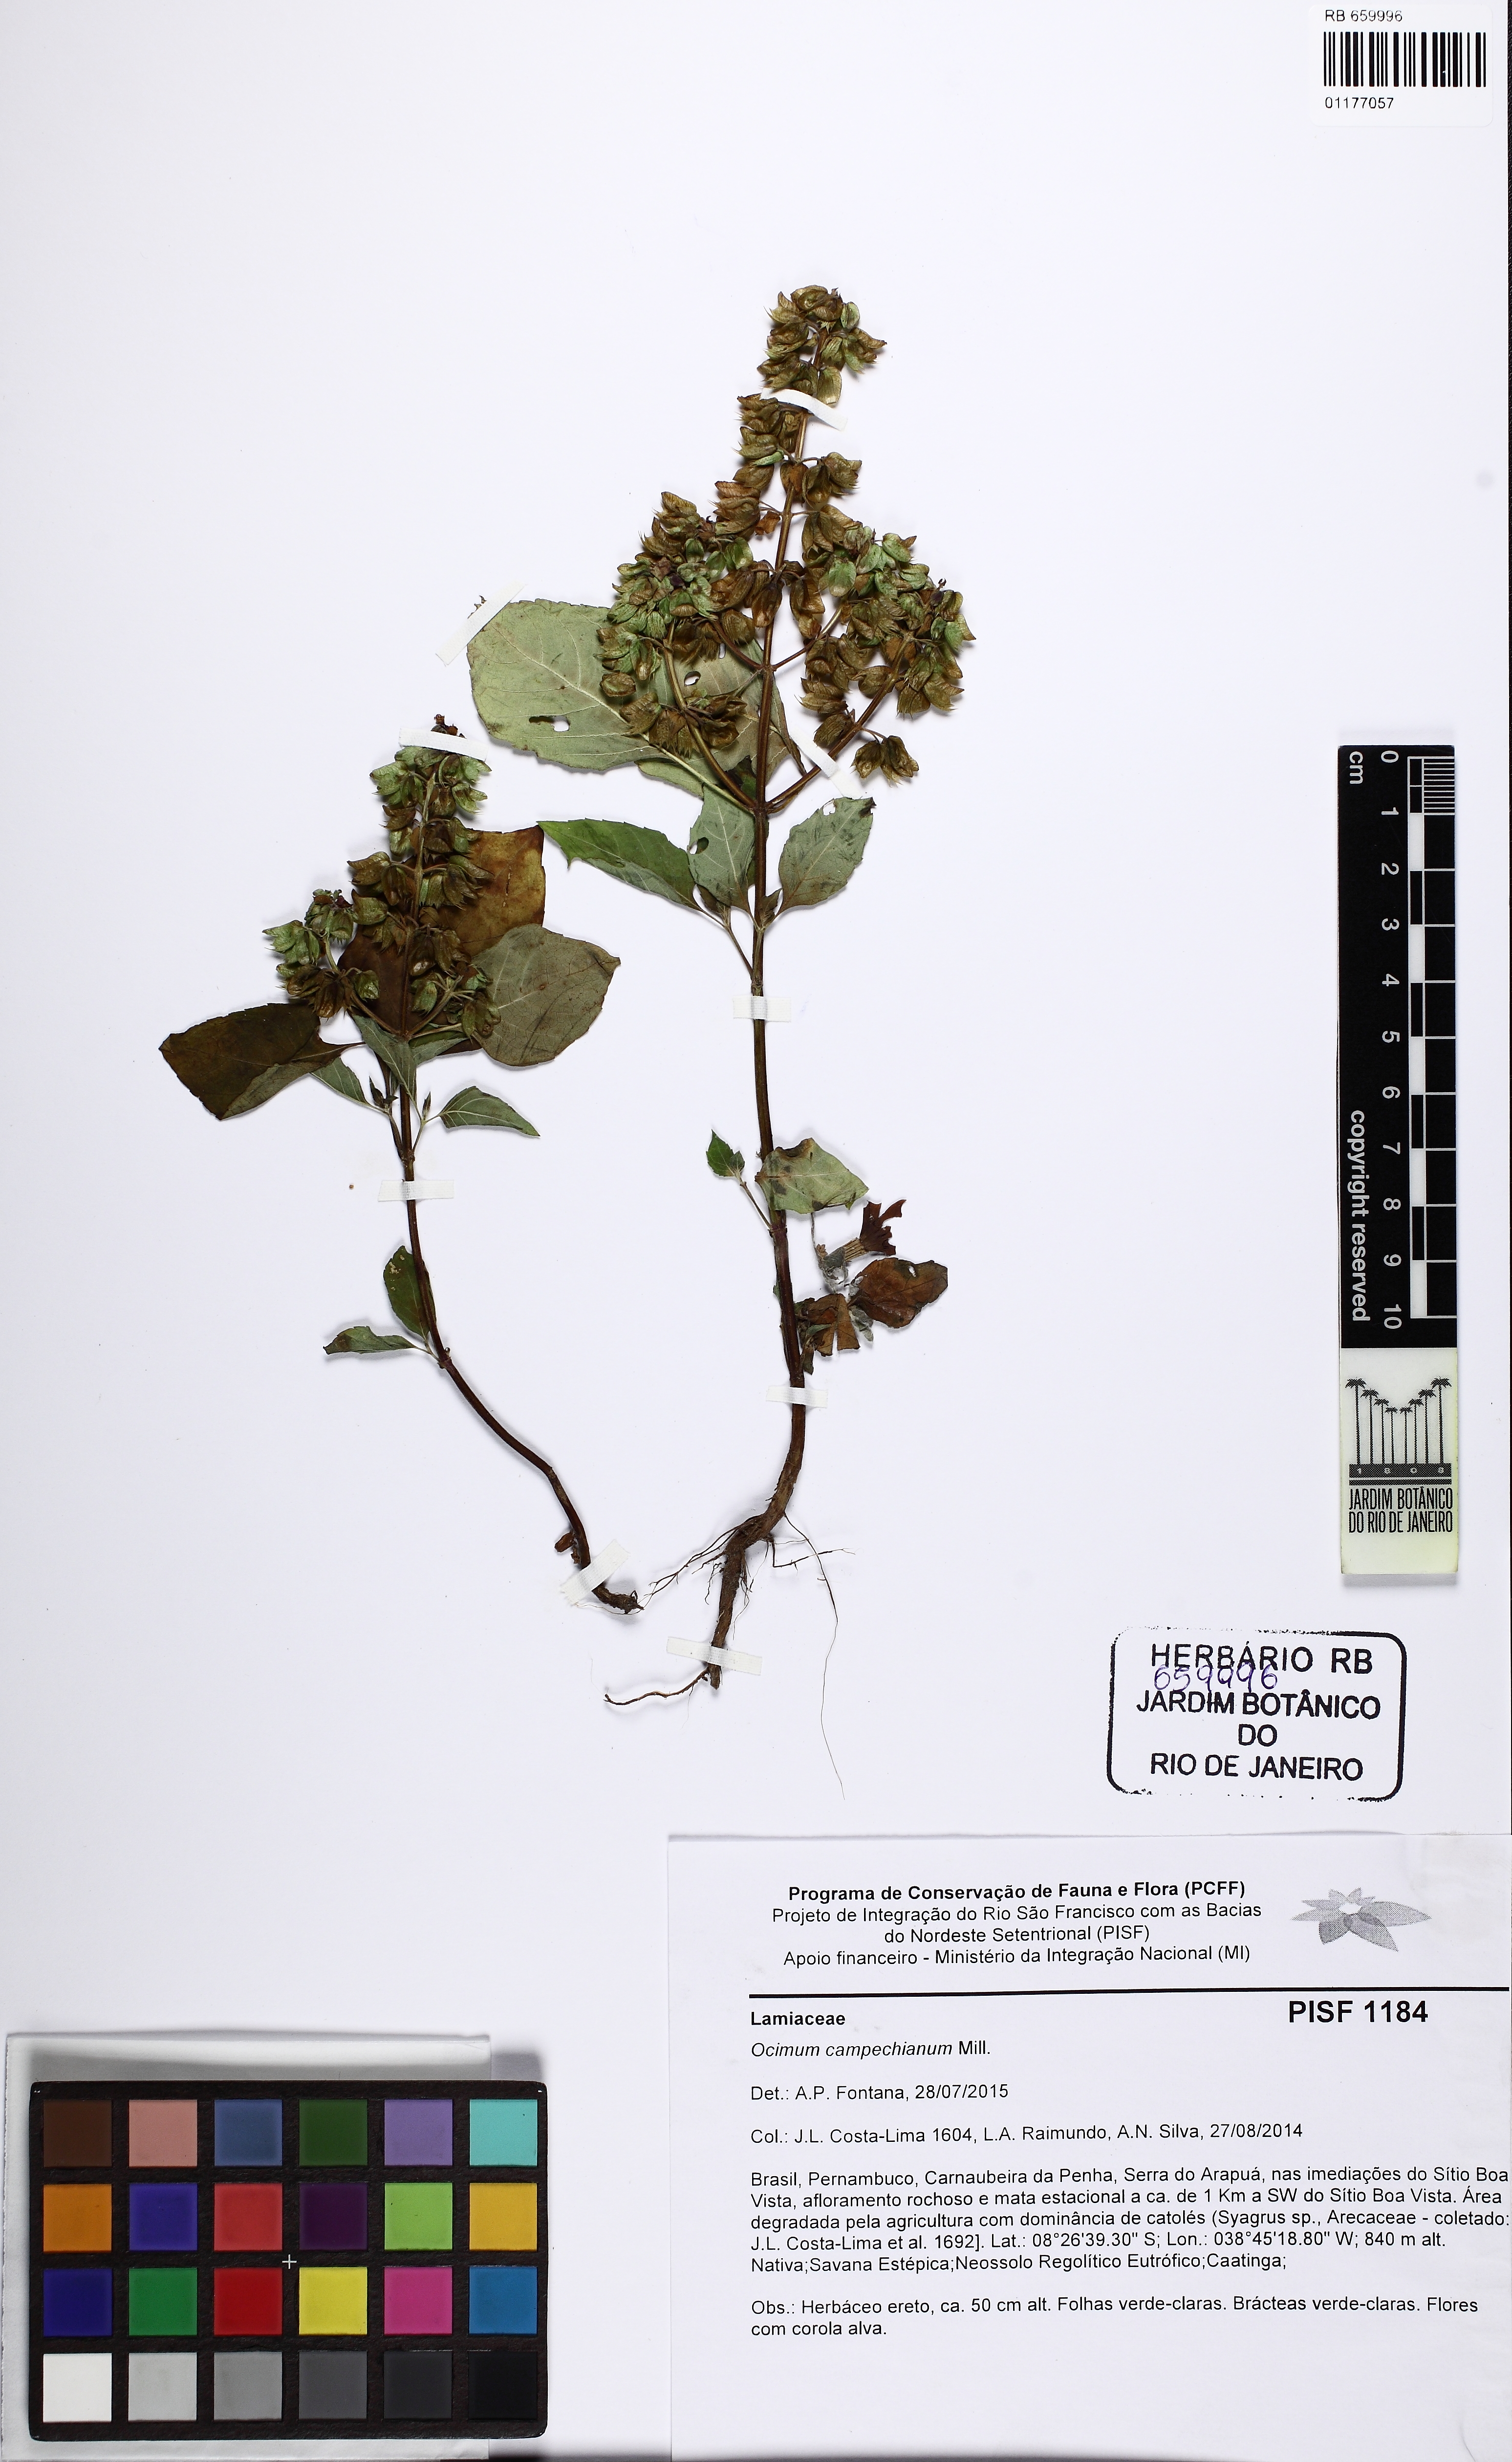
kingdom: Plantae
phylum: Tracheophyta
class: Magnoliopsida
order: Lamiales
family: Lamiaceae
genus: Ocimum
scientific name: Ocimum campechianum
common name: Mosquito basil
